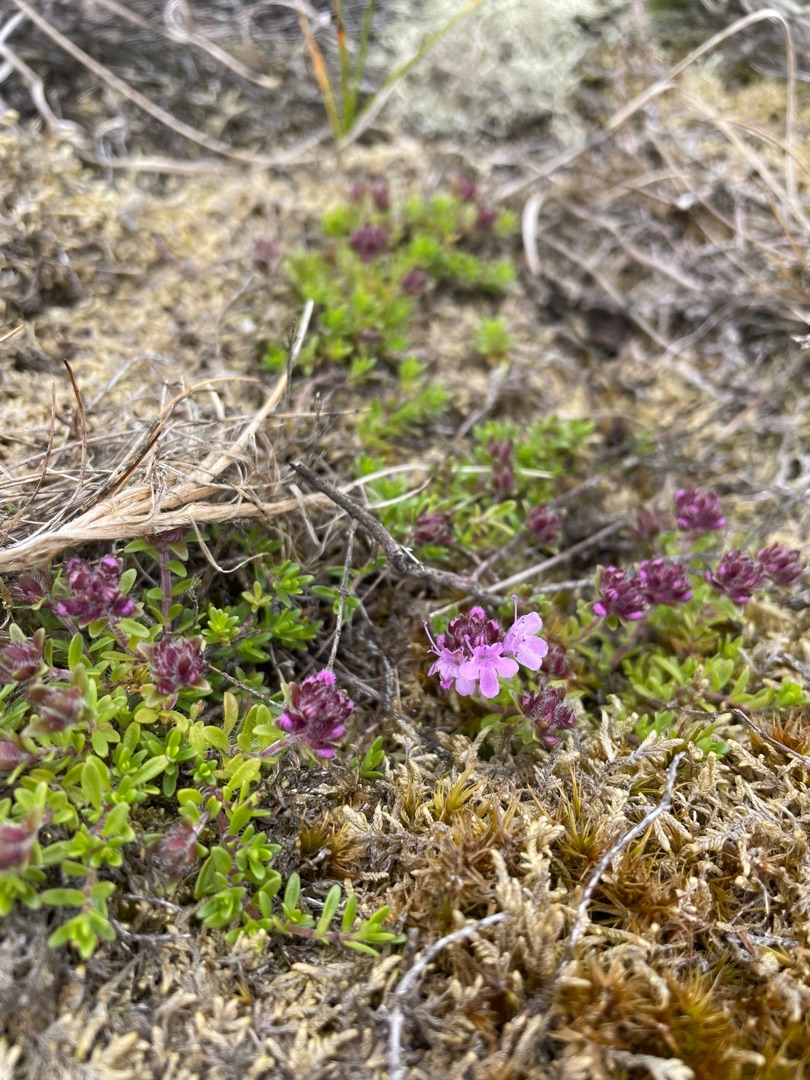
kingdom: Plantae
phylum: Tracheophyta
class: Magnoliopsida
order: Lamiales
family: Lamiaceae
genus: Thymus
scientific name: Thymus serpyllum
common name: Smalbladet timian
